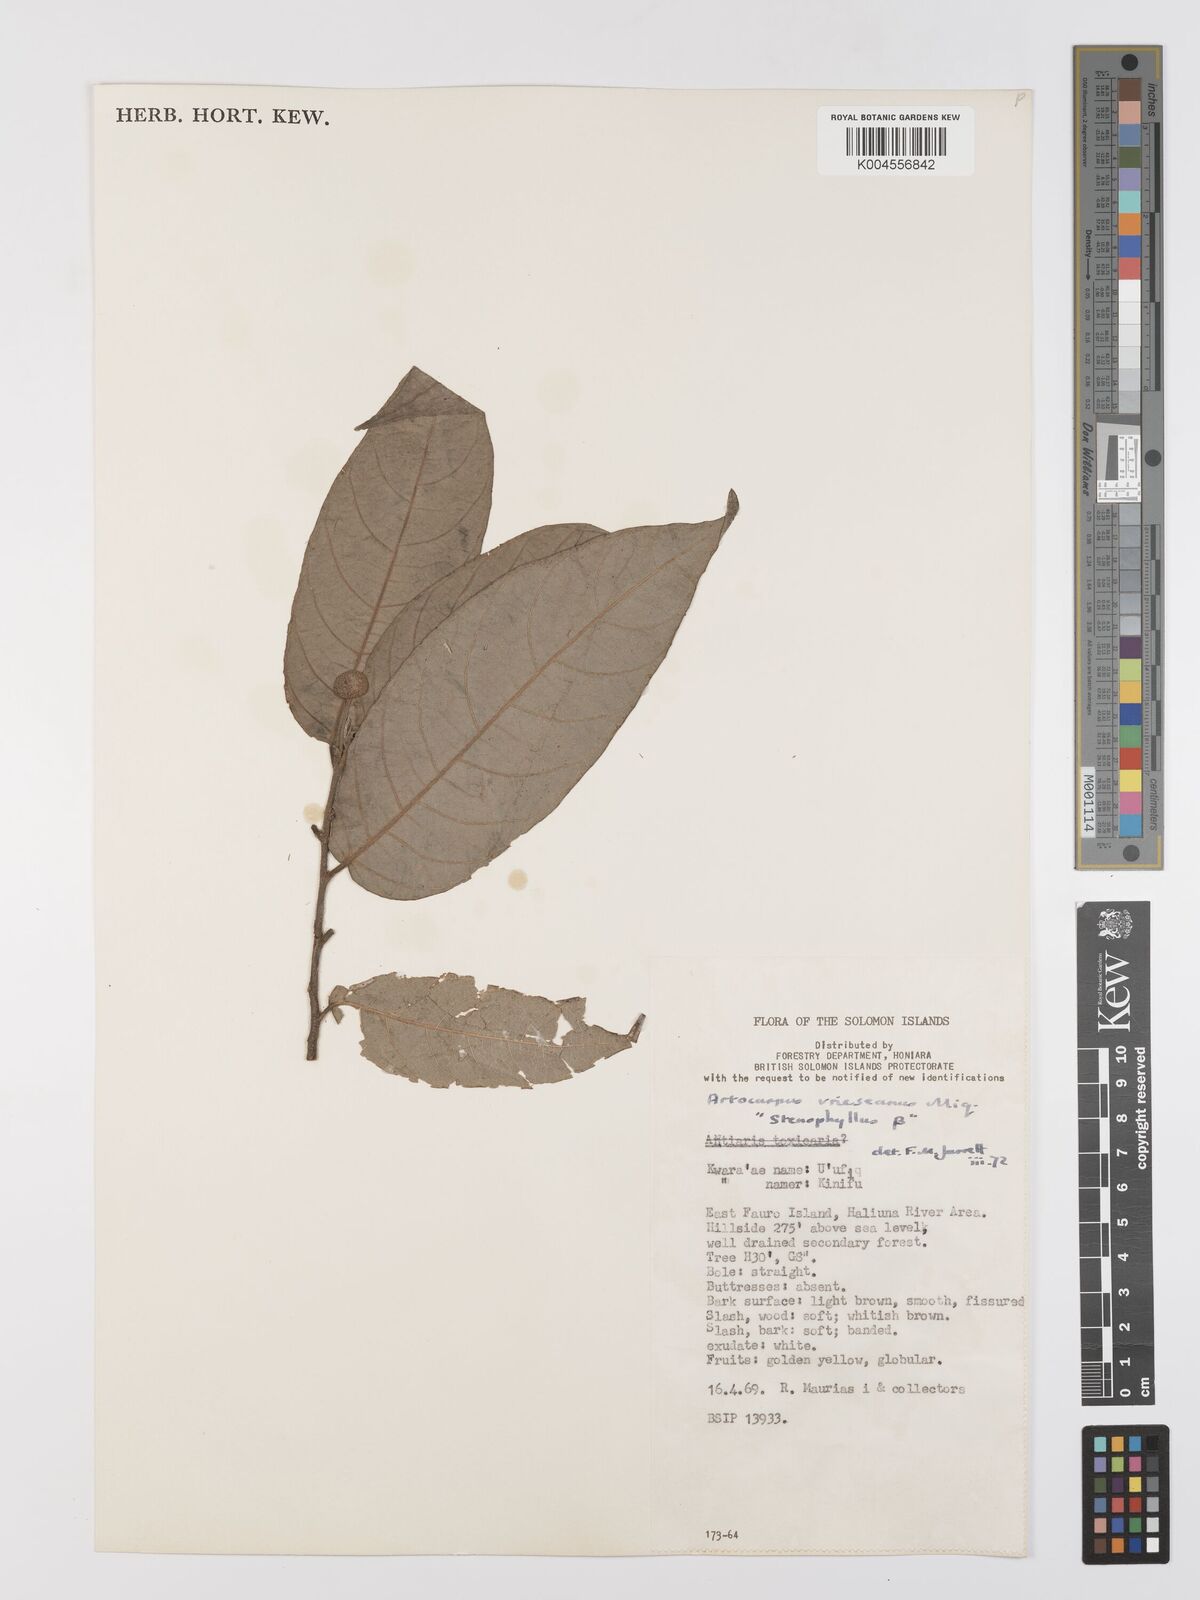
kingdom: Plantae
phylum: Tracheophyta
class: Magnoliopsida
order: Rosales
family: Moraceae
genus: Artocarpus
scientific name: Artocarpus vrieseanus
